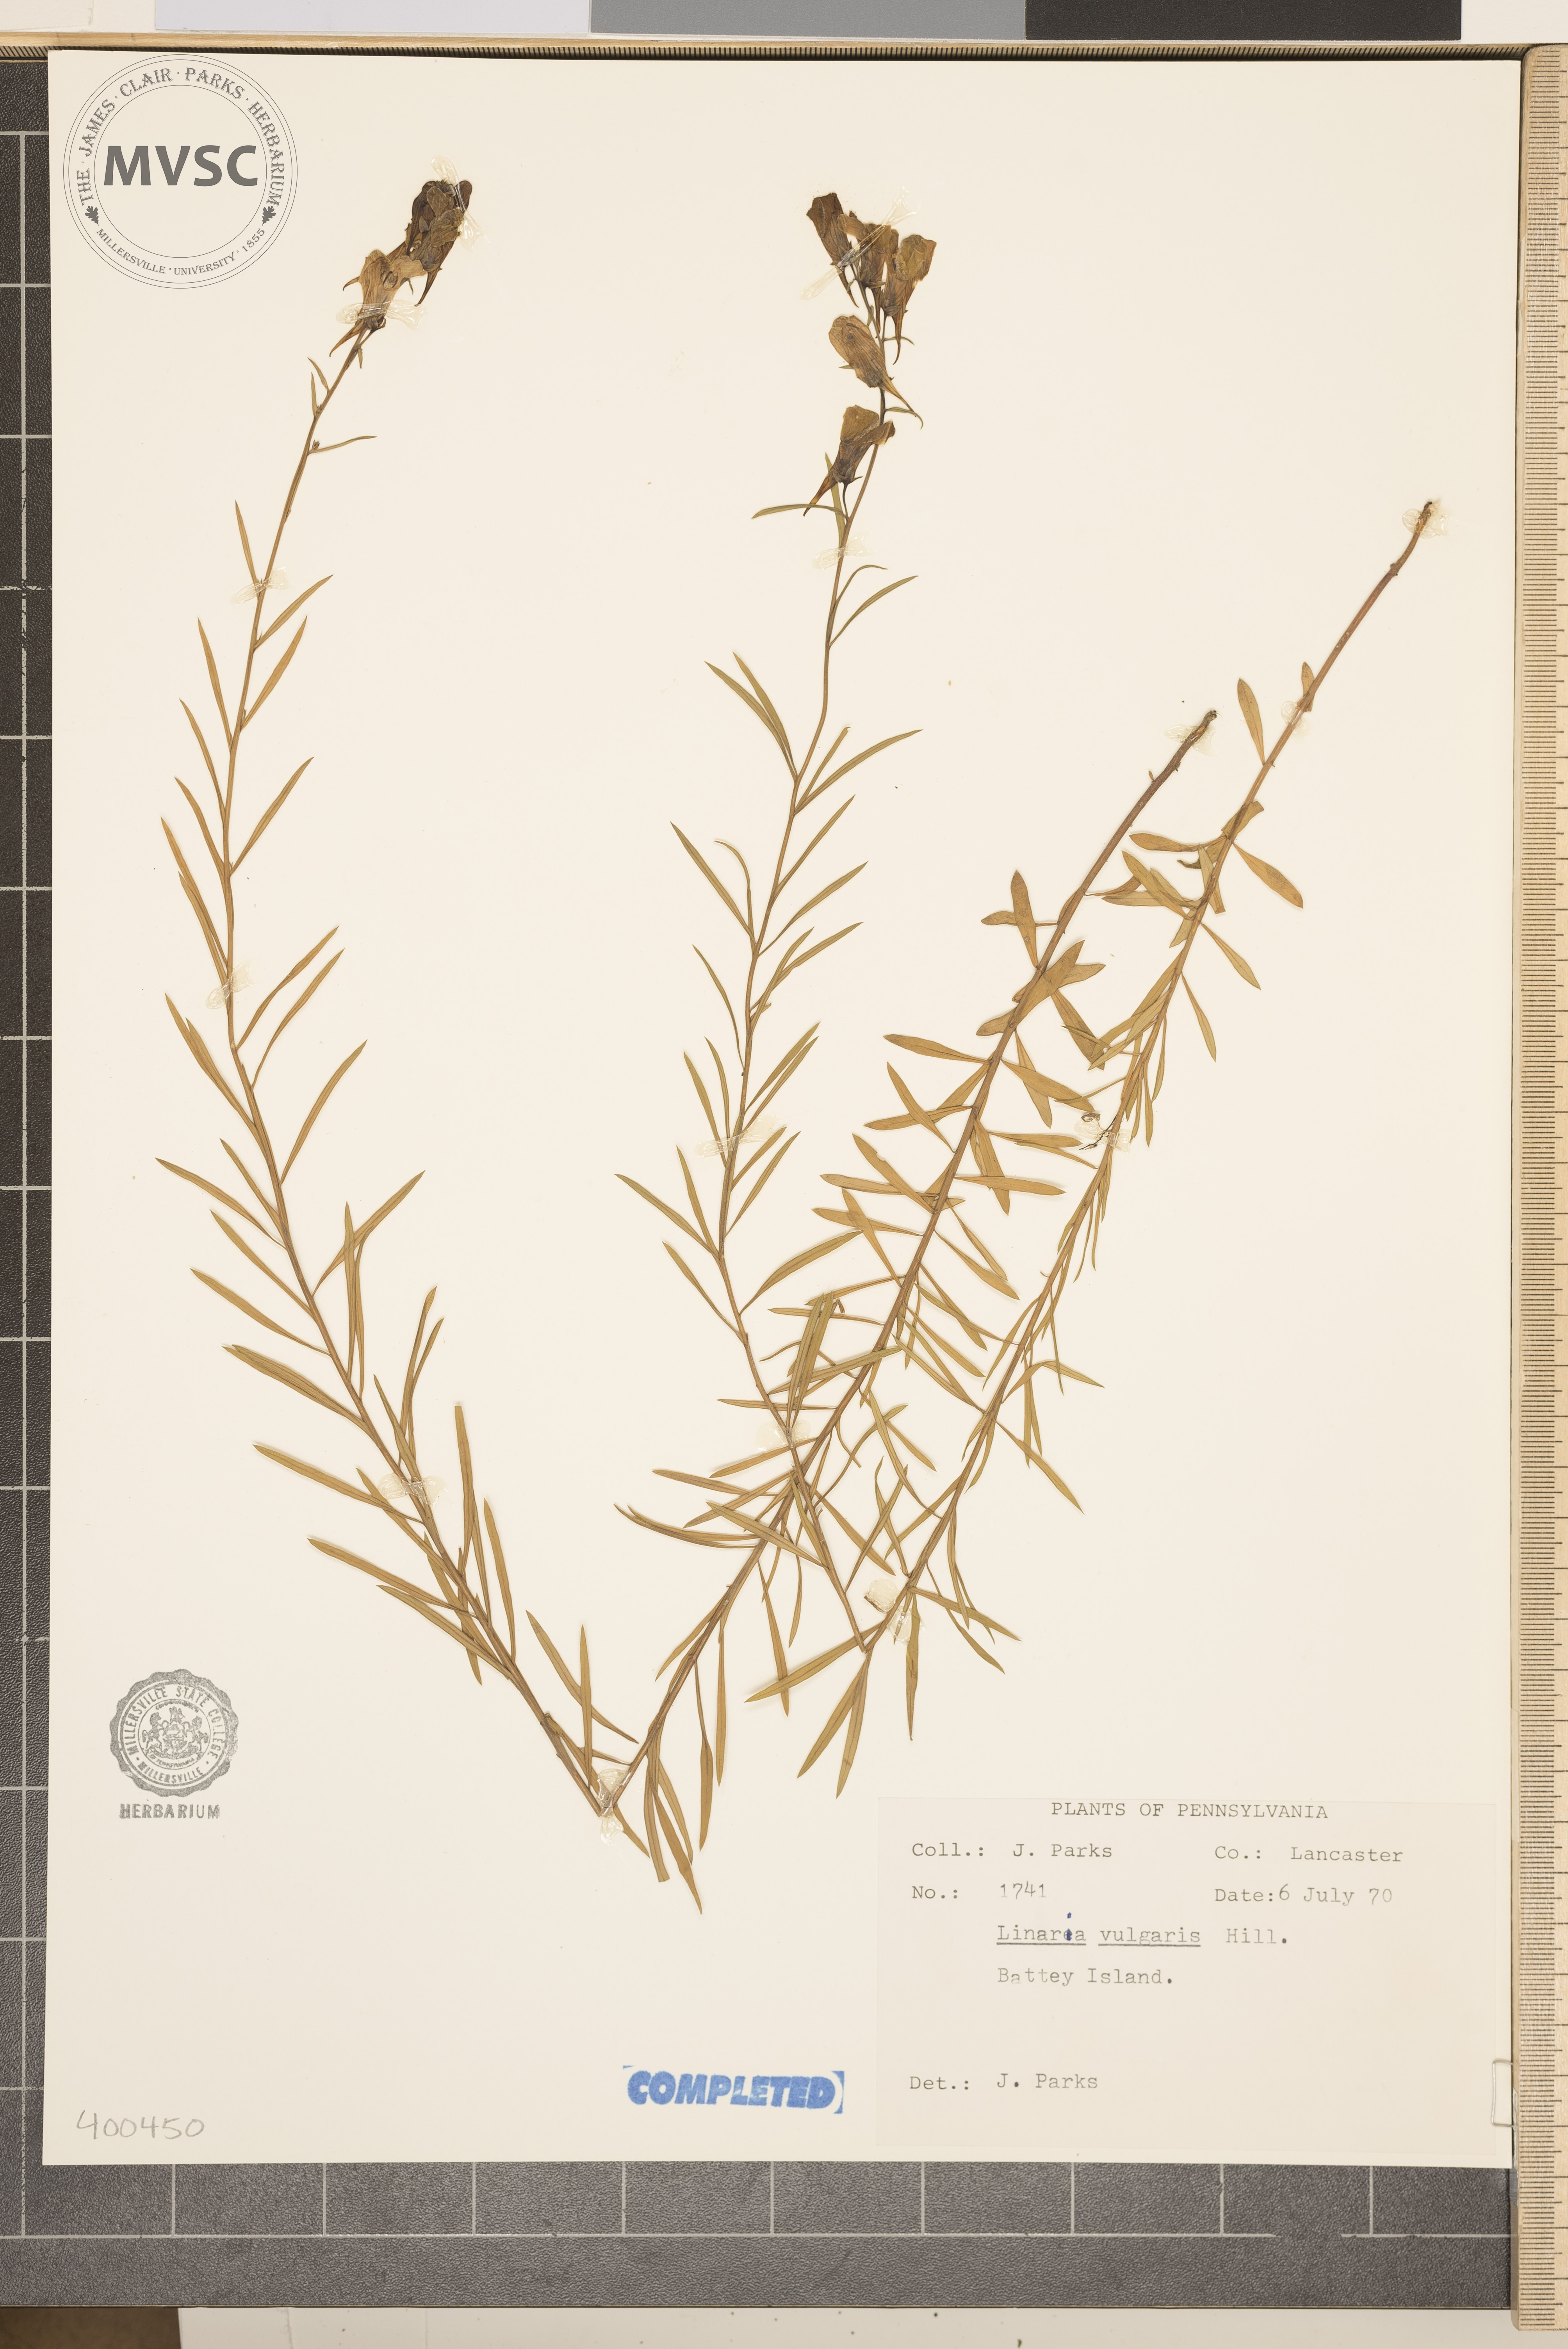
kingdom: Plantae
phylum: Tracheophyta
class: Magnoliopsida
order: Lamiales
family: Plantaginaceae
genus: Linaria
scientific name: Linaria vulgaris
